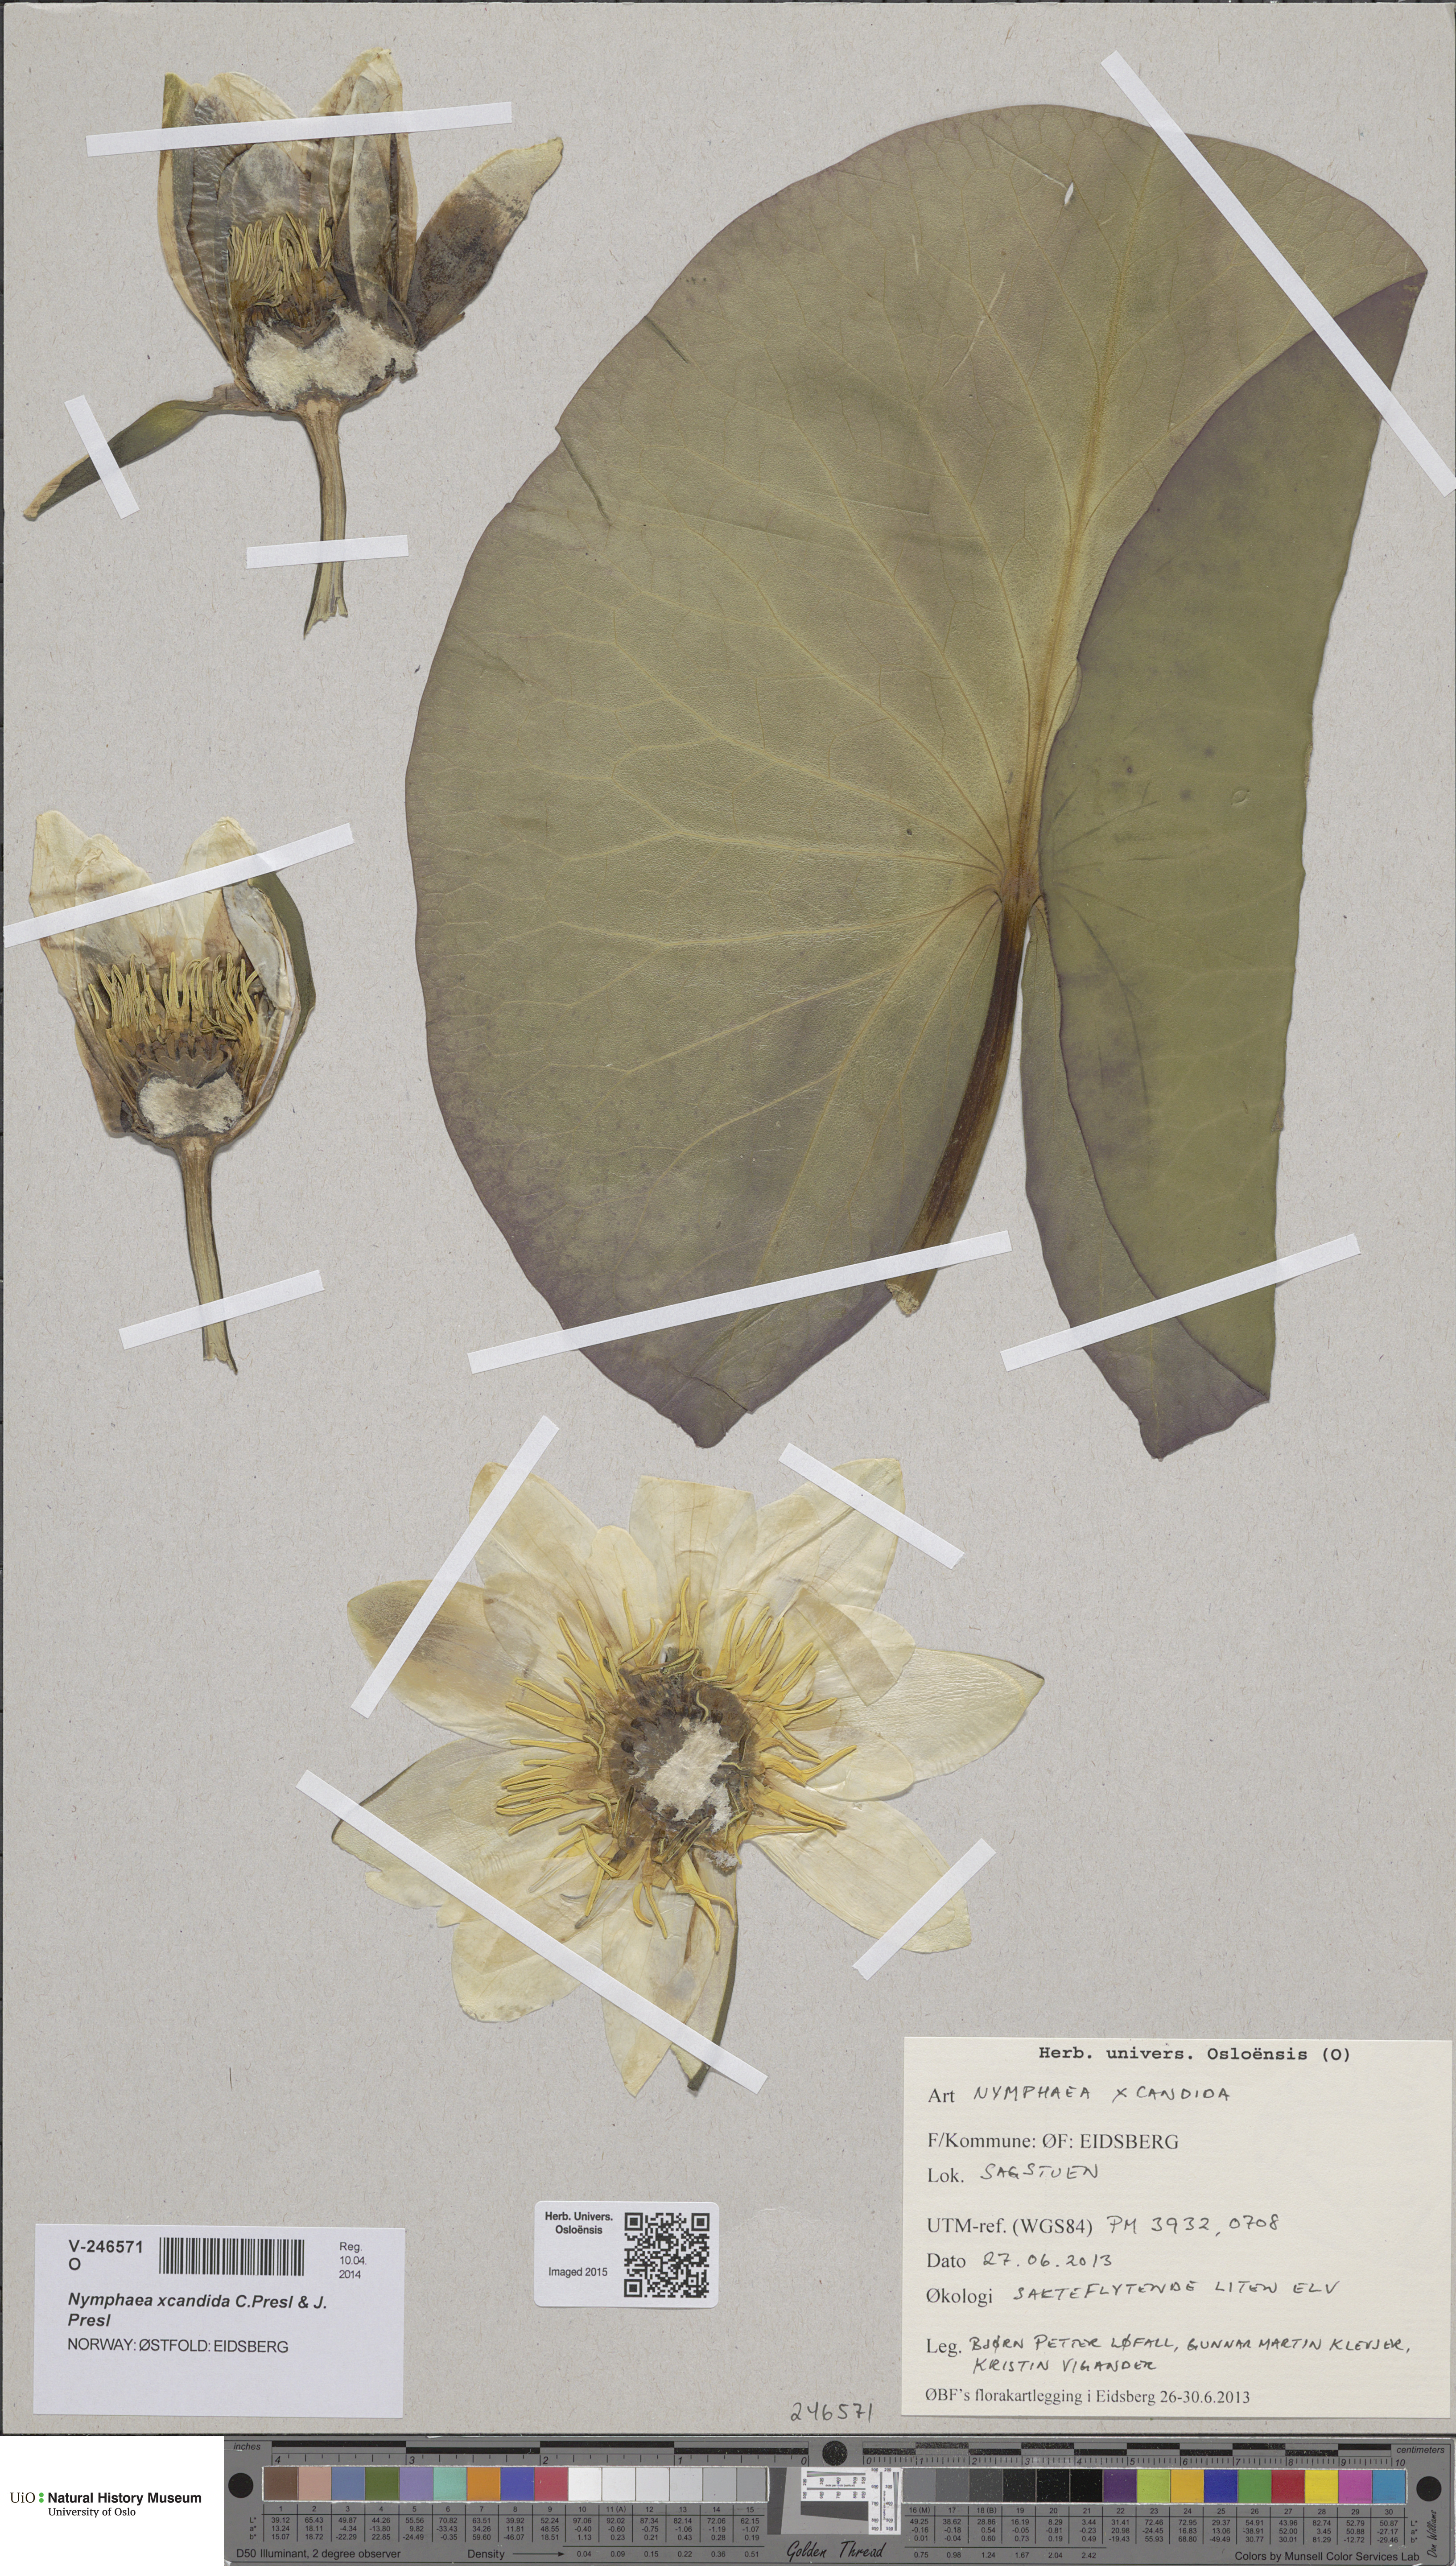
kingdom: Plantae
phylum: Tracheophyta
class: Magnoliopsida
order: Nymphaeales
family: Nymphaeaceae
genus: Nymphaea
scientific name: Nymphaea candida
